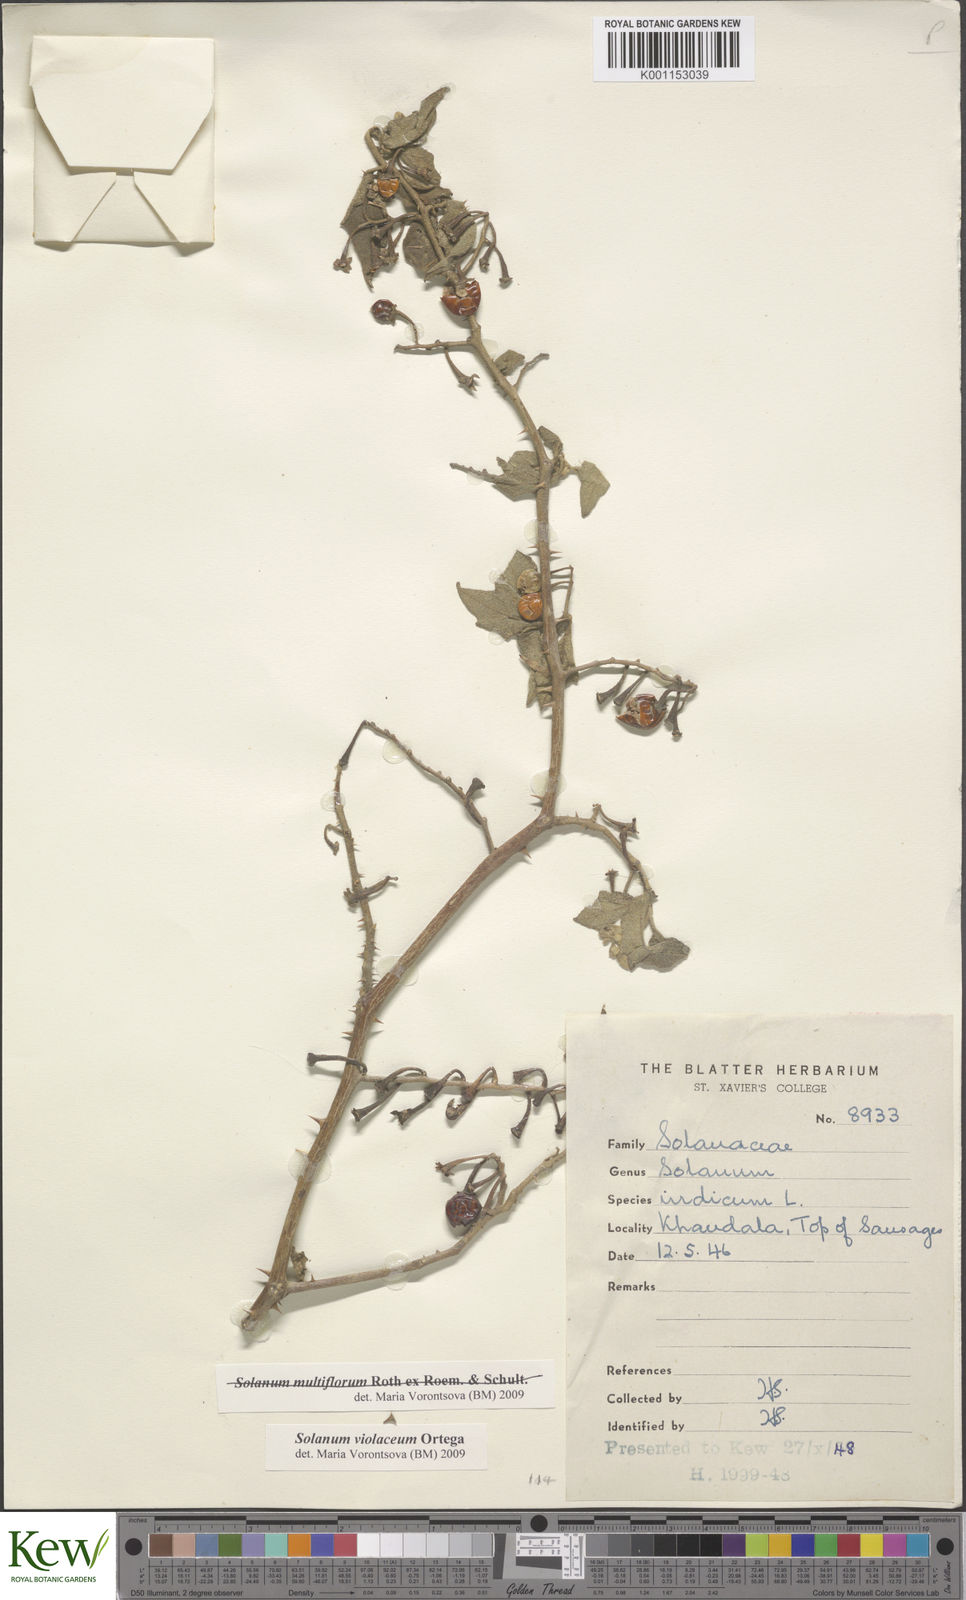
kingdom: Plantae
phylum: Tracheophyta
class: Magnoliopsida
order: Solanales
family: Solanaceae
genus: Solanum
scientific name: Solanum violaceum
